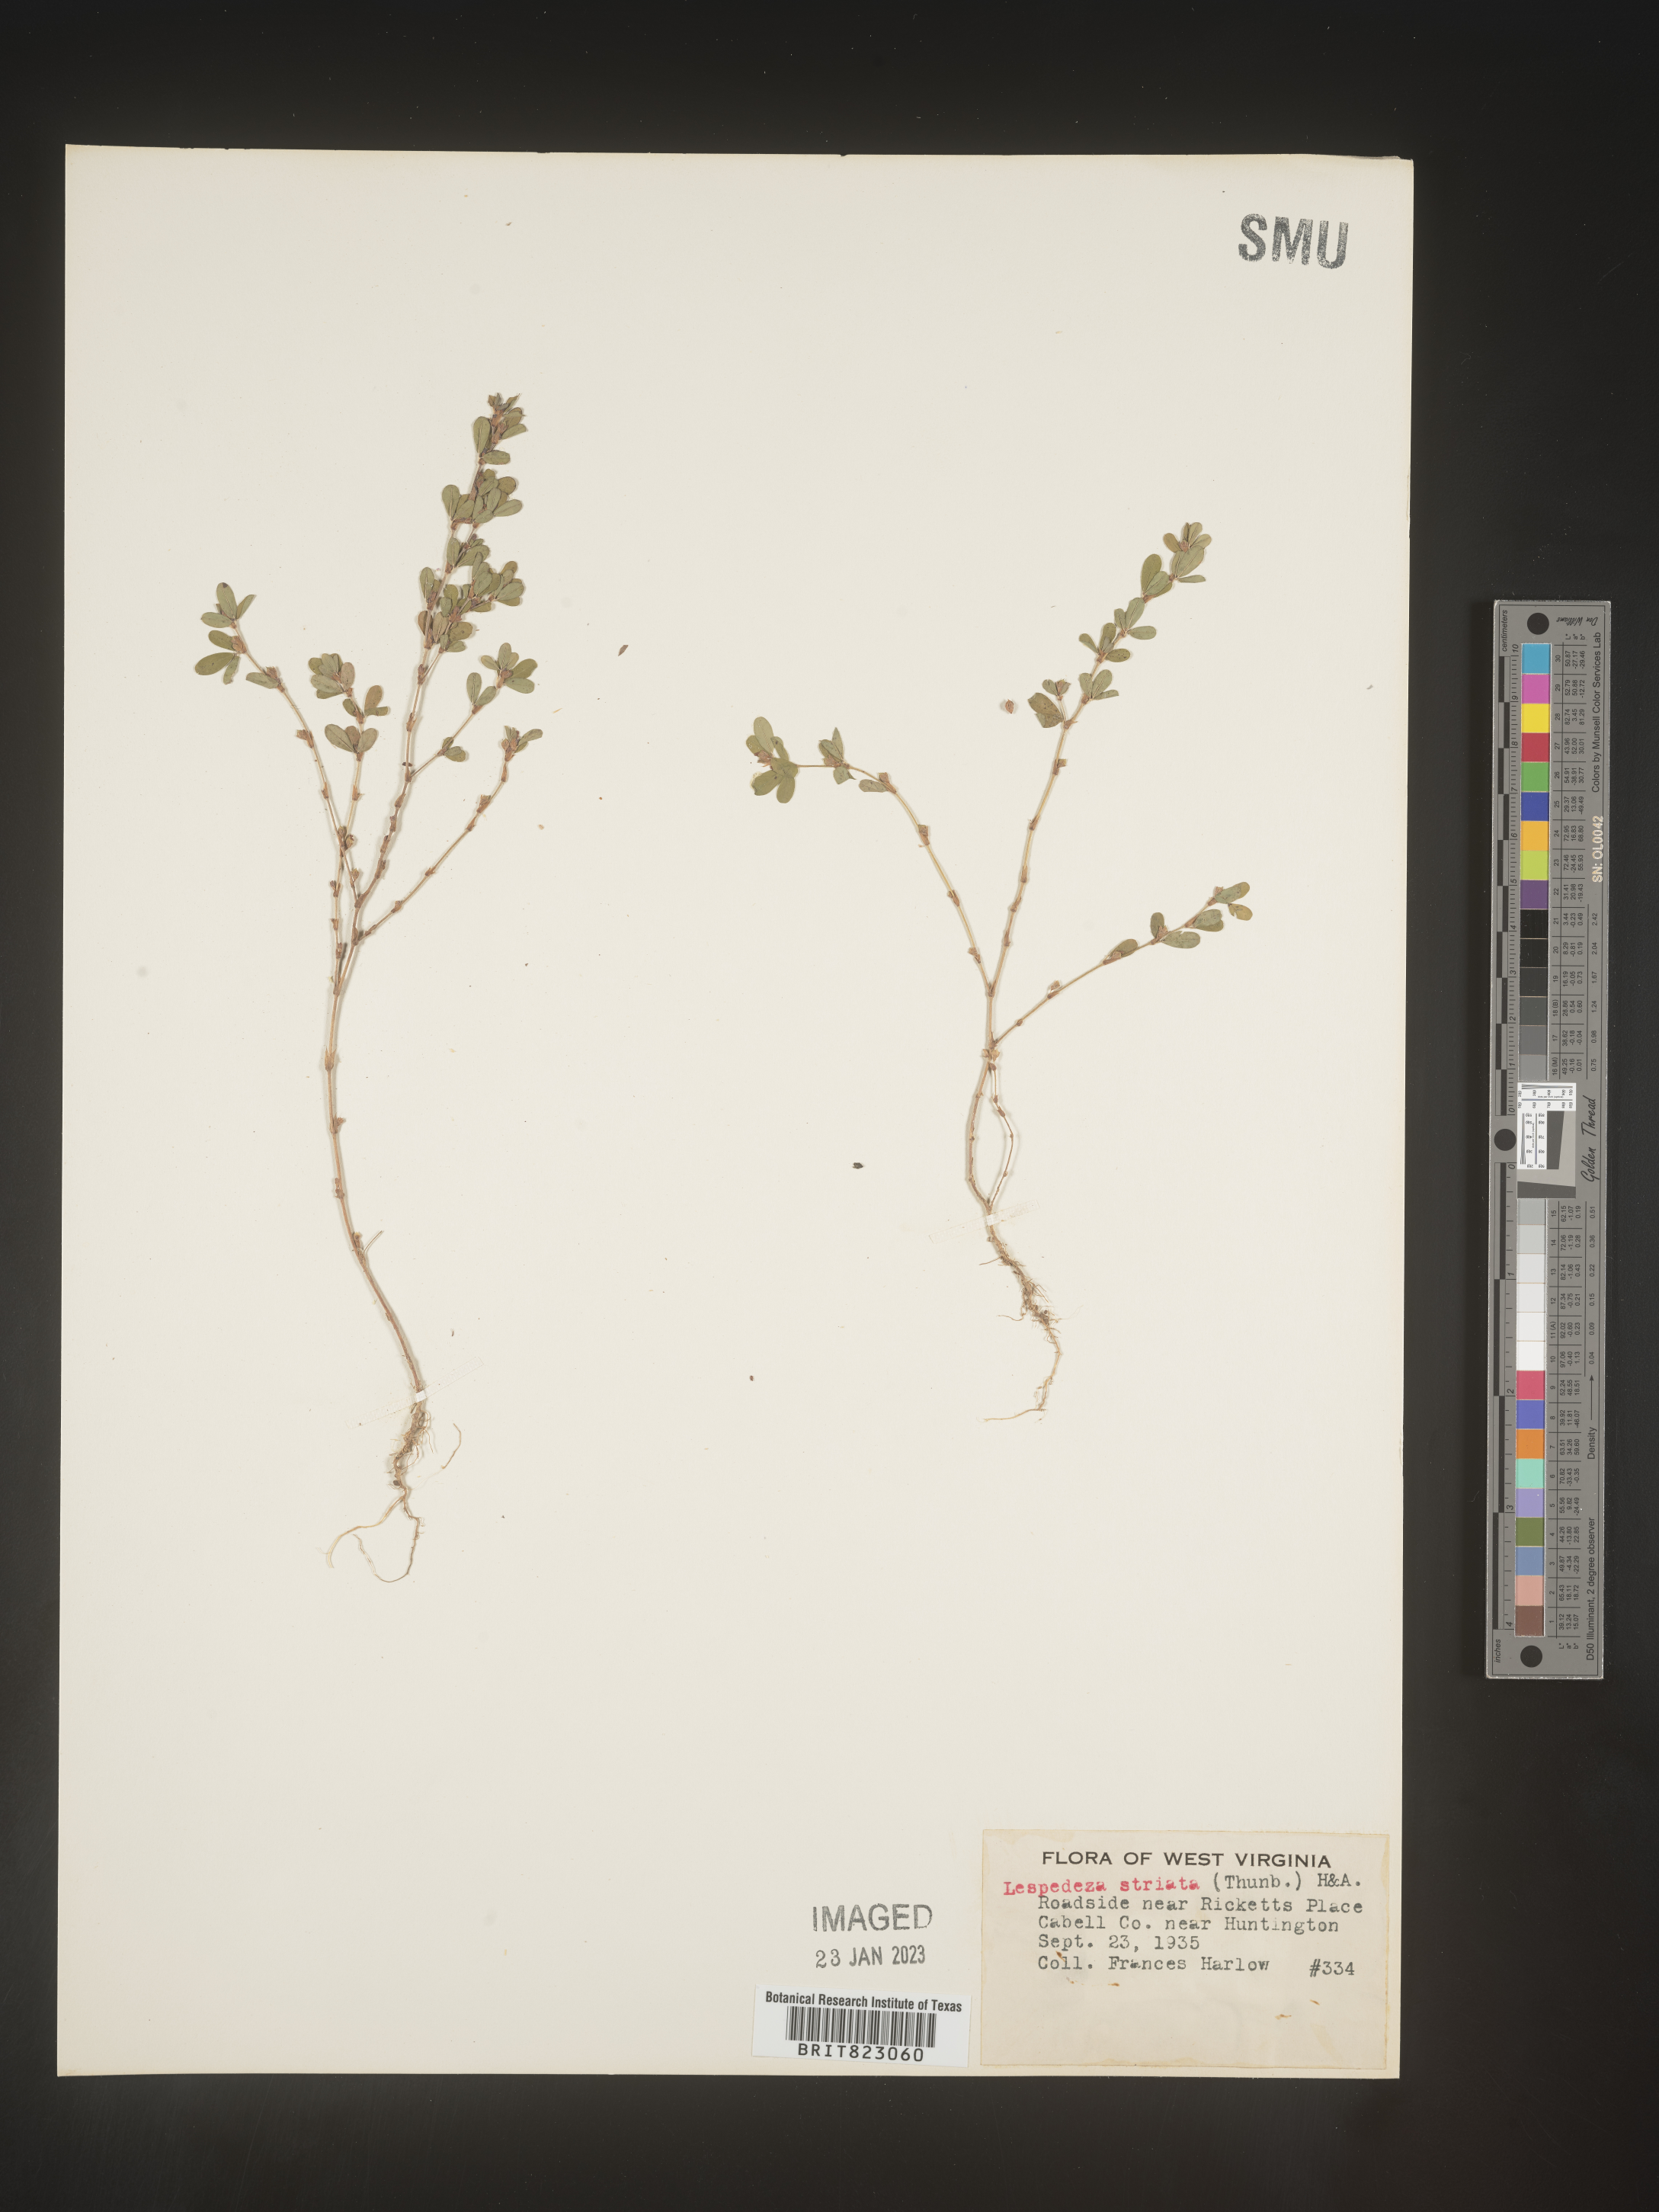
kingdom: Plantae
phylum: Tracheophyta
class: Magnoliopsida
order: Fabales
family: Fabaceae
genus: Kummerowia
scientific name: Kummerowia striata
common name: Japanese clover
